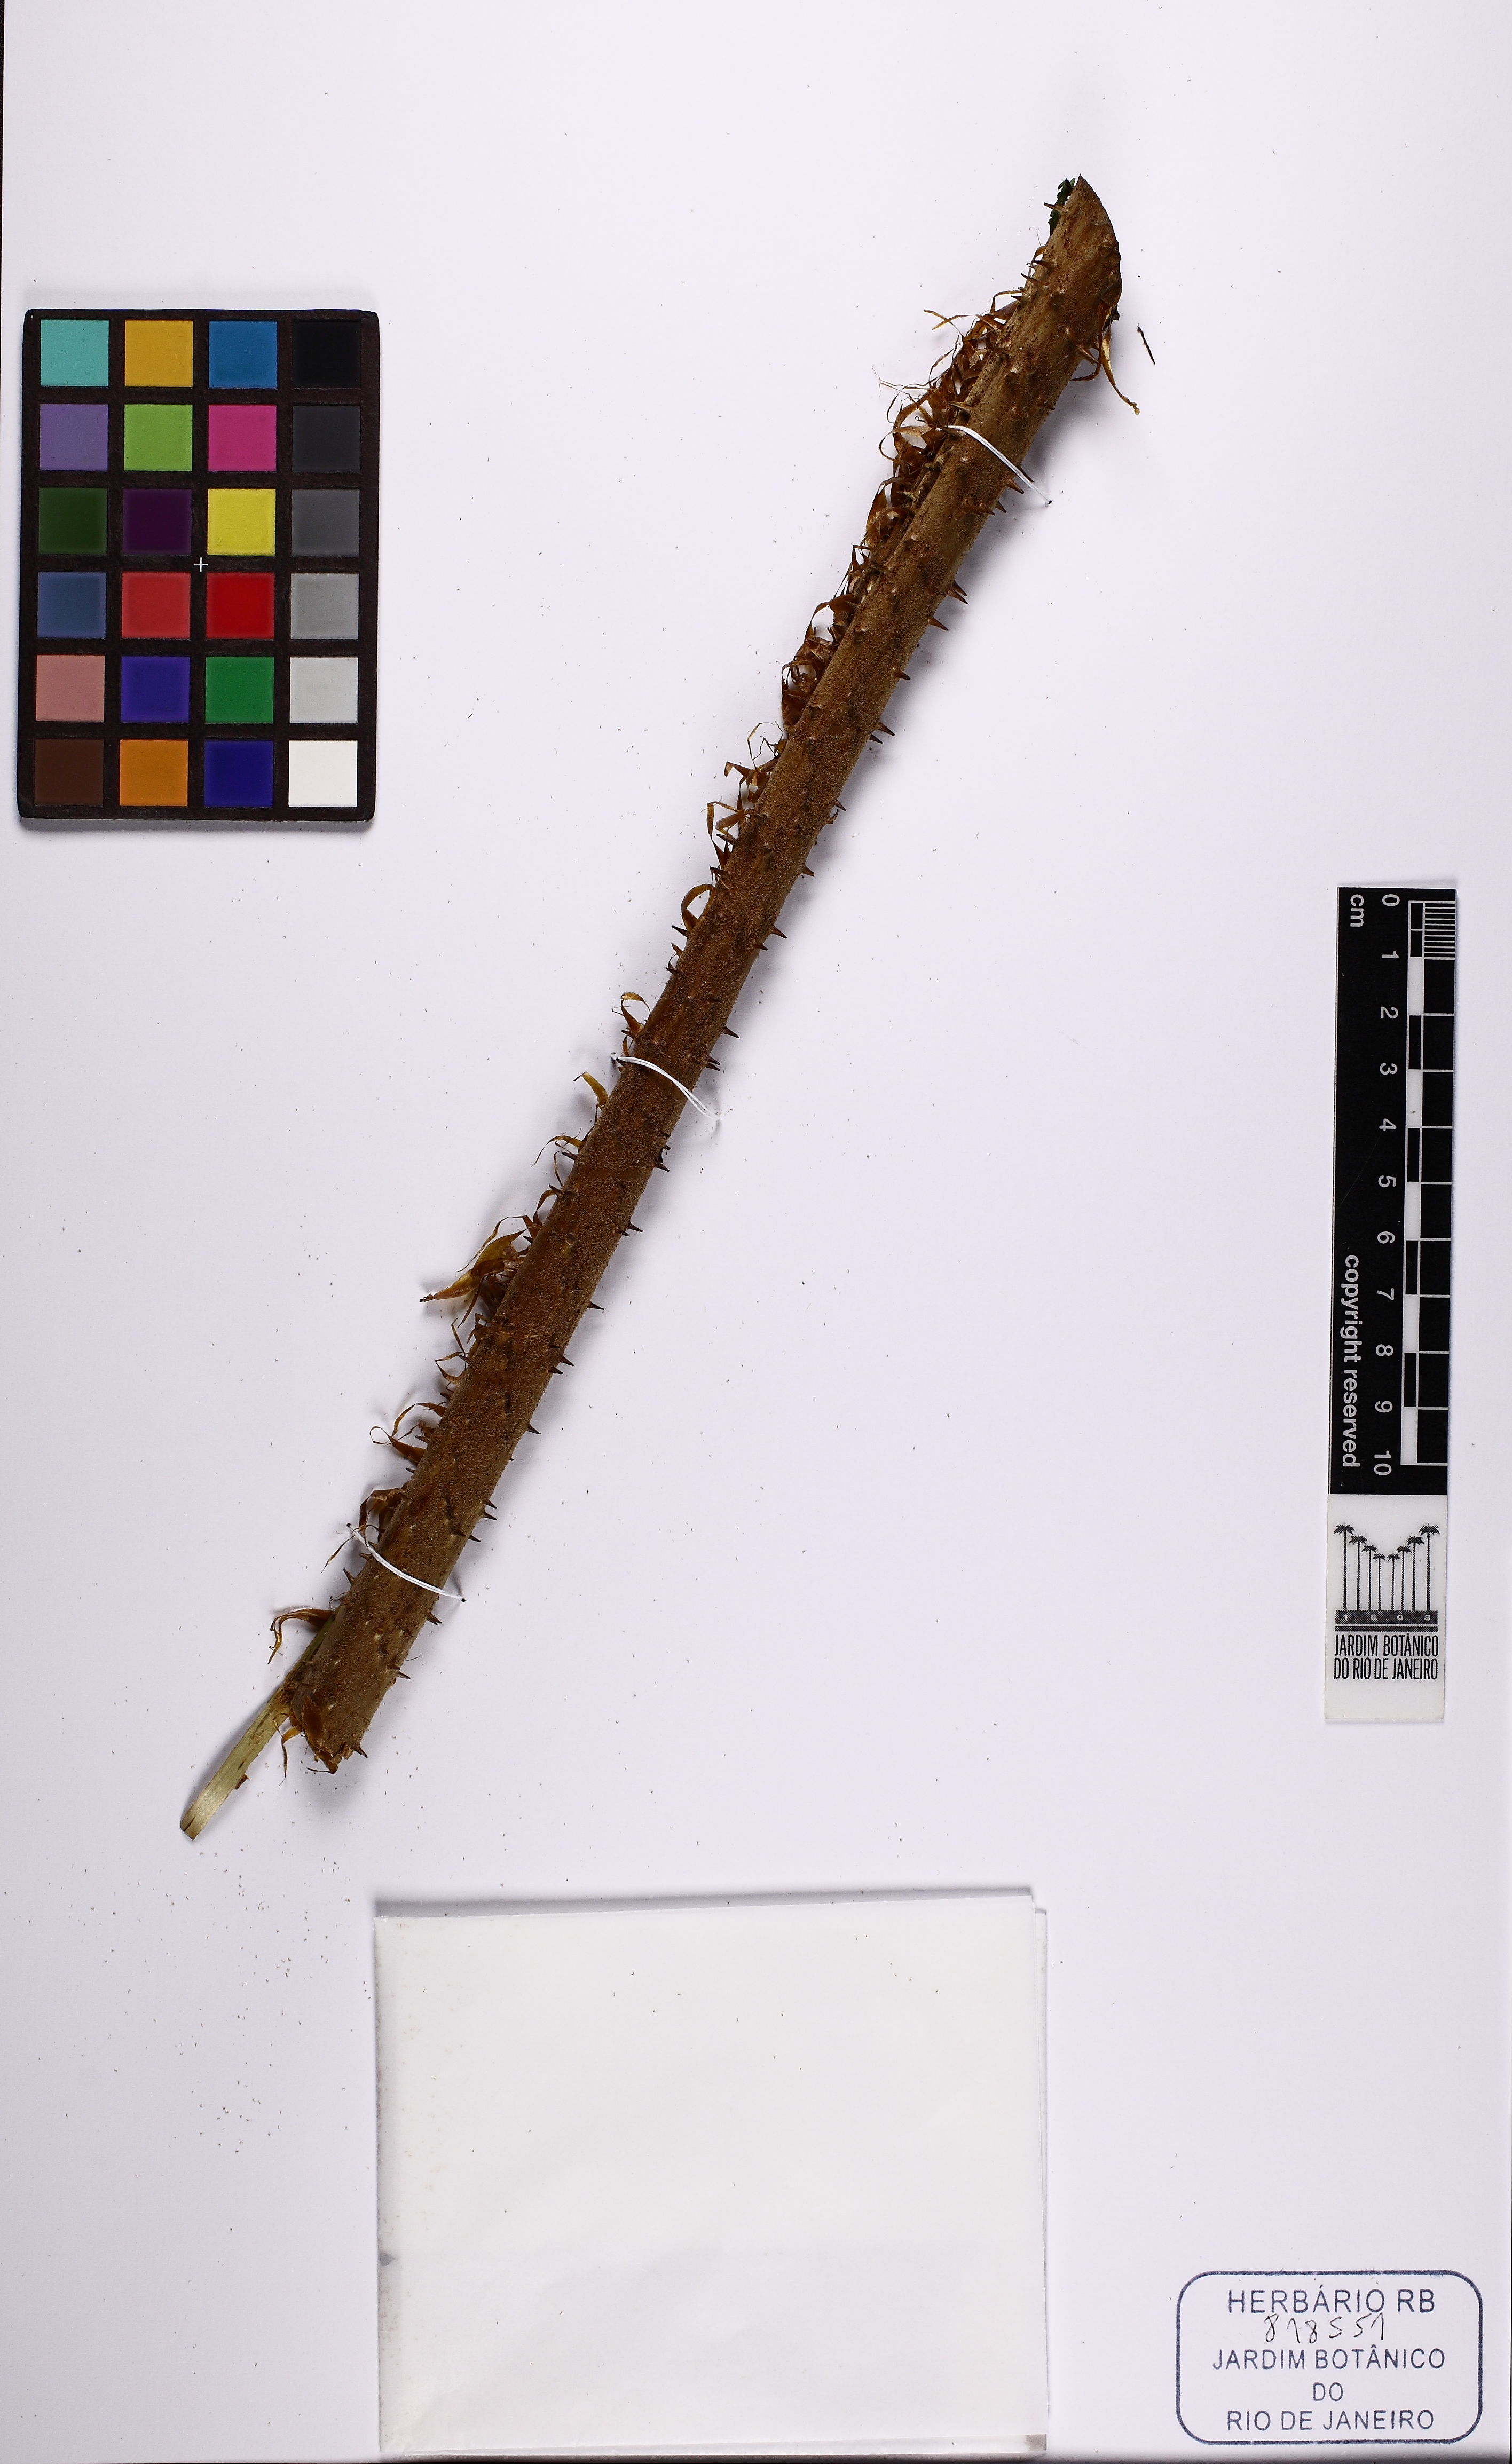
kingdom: Plantae
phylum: Tracheophyta
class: Polypodiopsida
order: Cyatheales
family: Cyatheaceae
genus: Cyathea
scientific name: Cyathea atrovirens
